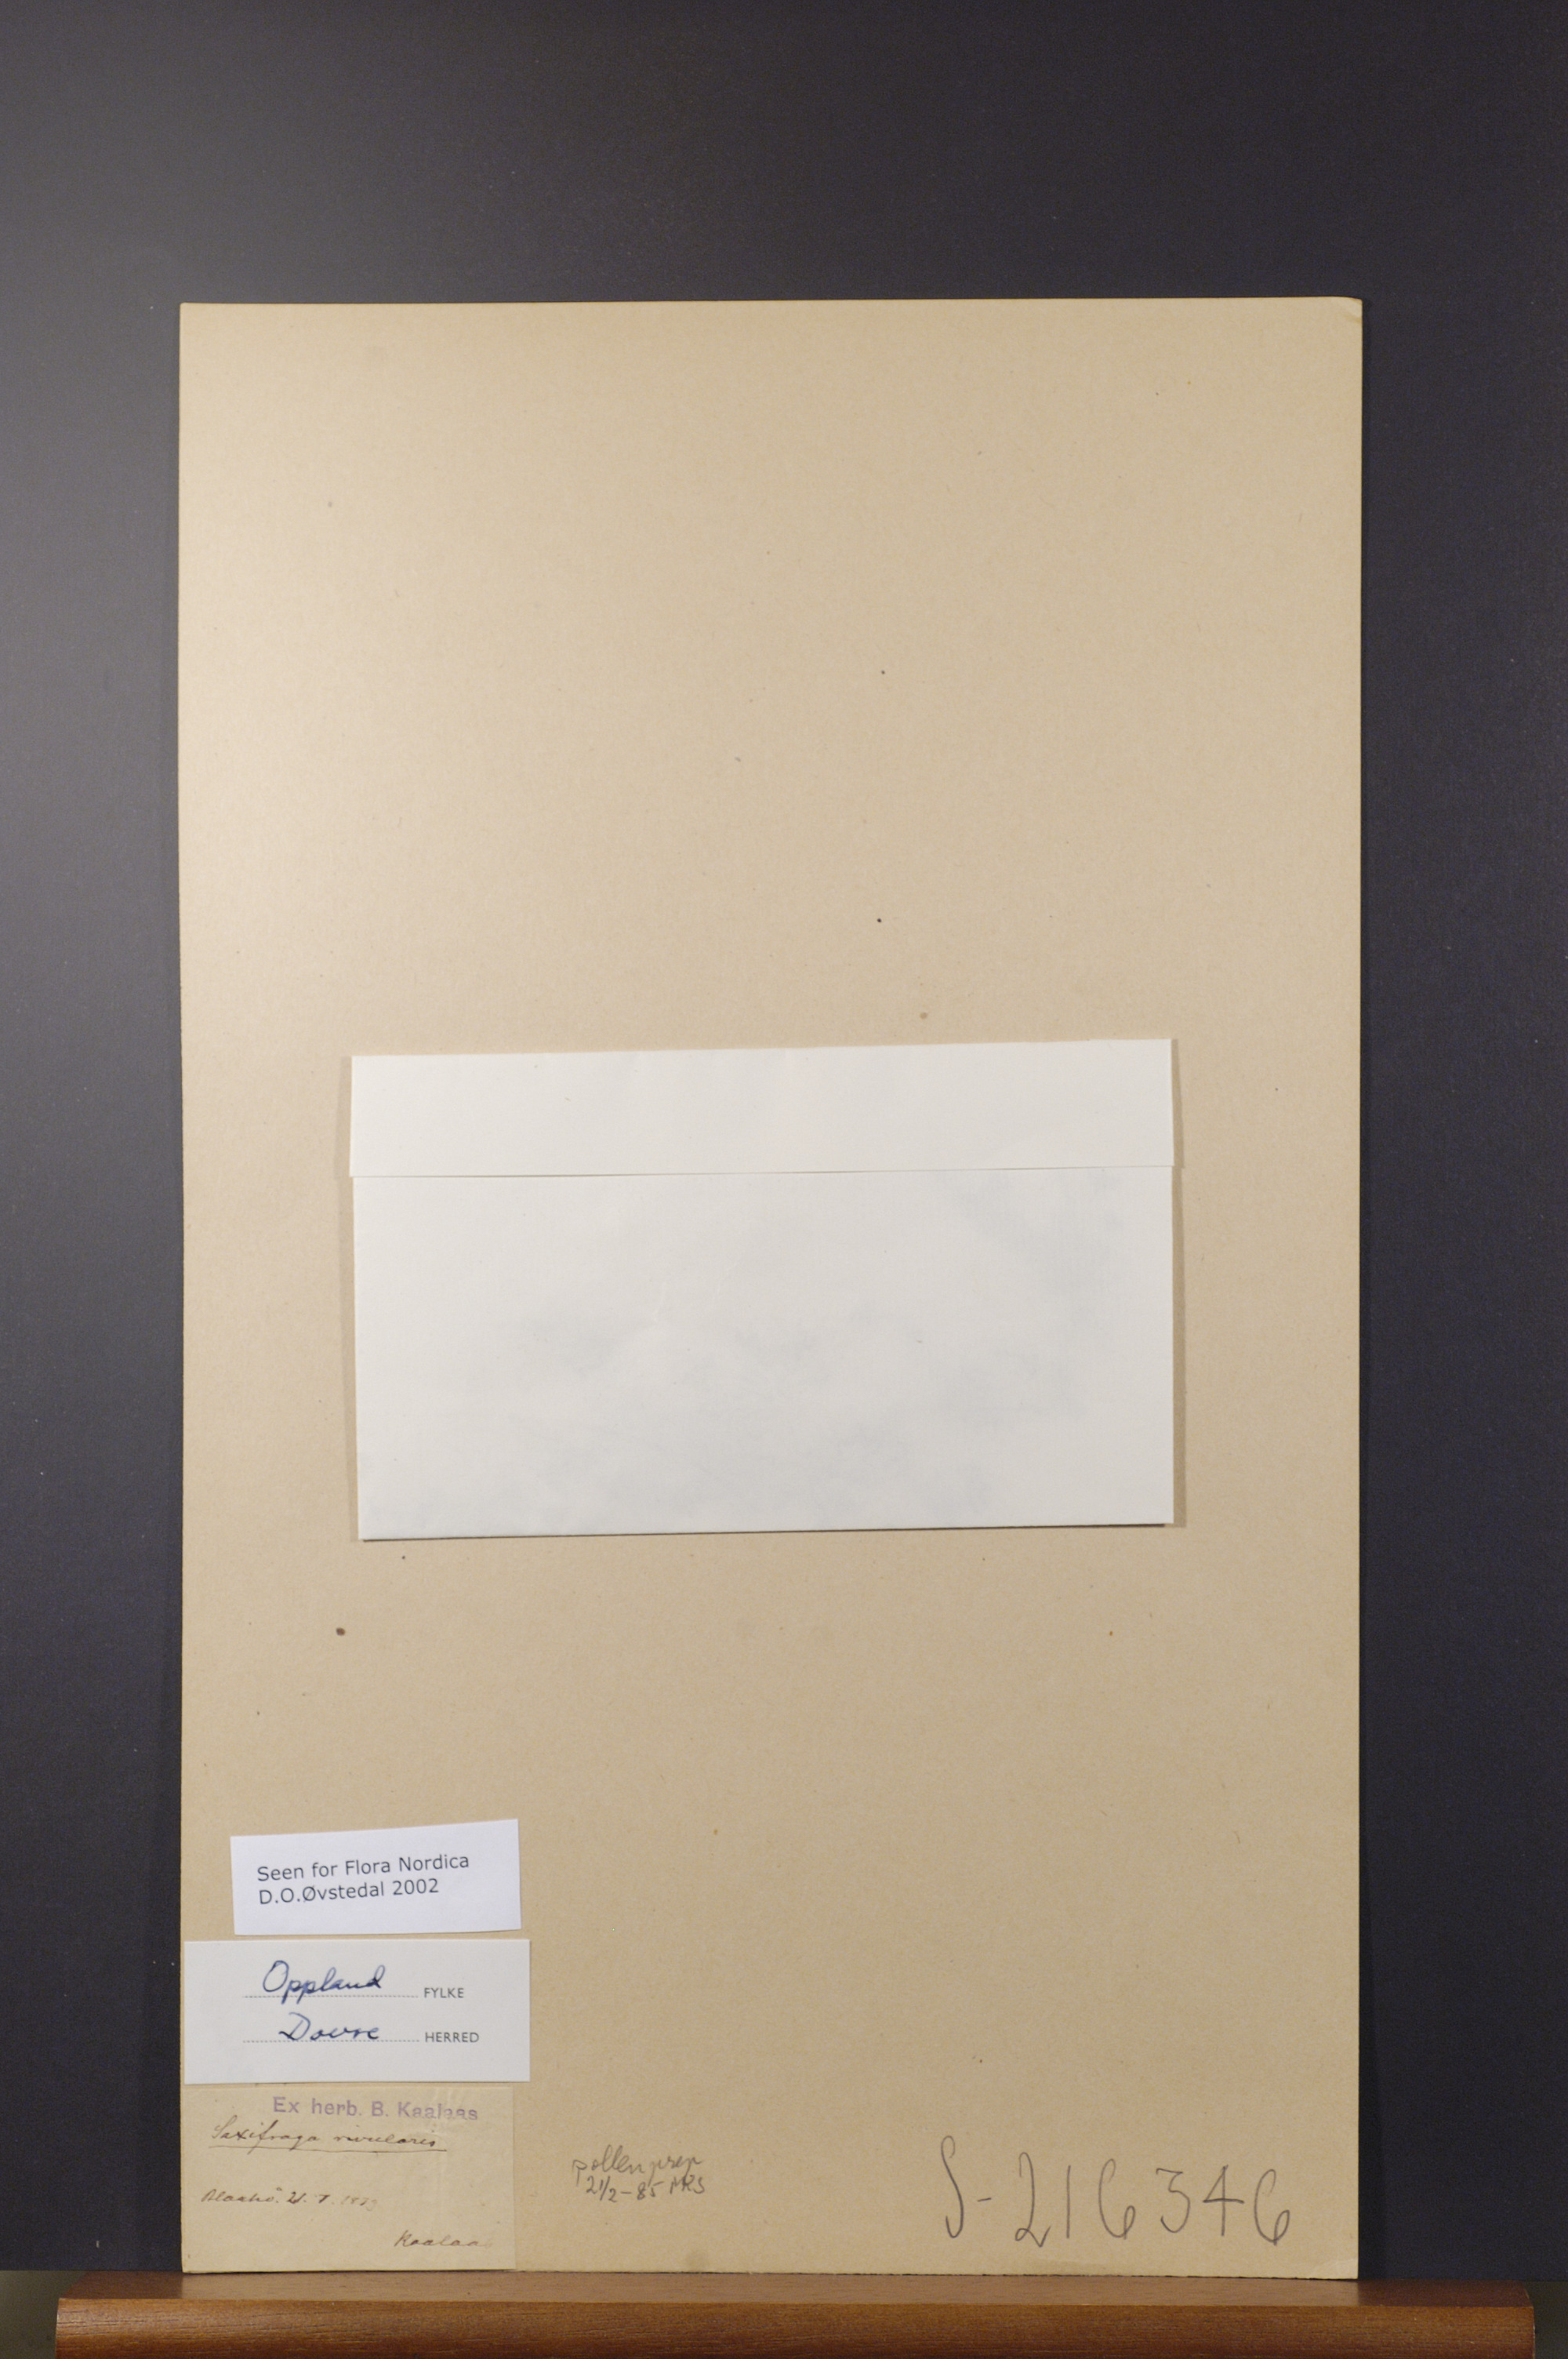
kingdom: Plantae
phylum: Tracheophyta
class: Magnoliopsida
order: Saxifragales
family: Saxifragaceae
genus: Saxifraga
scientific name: Saxifraga rivularis
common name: Highland saxifrage
